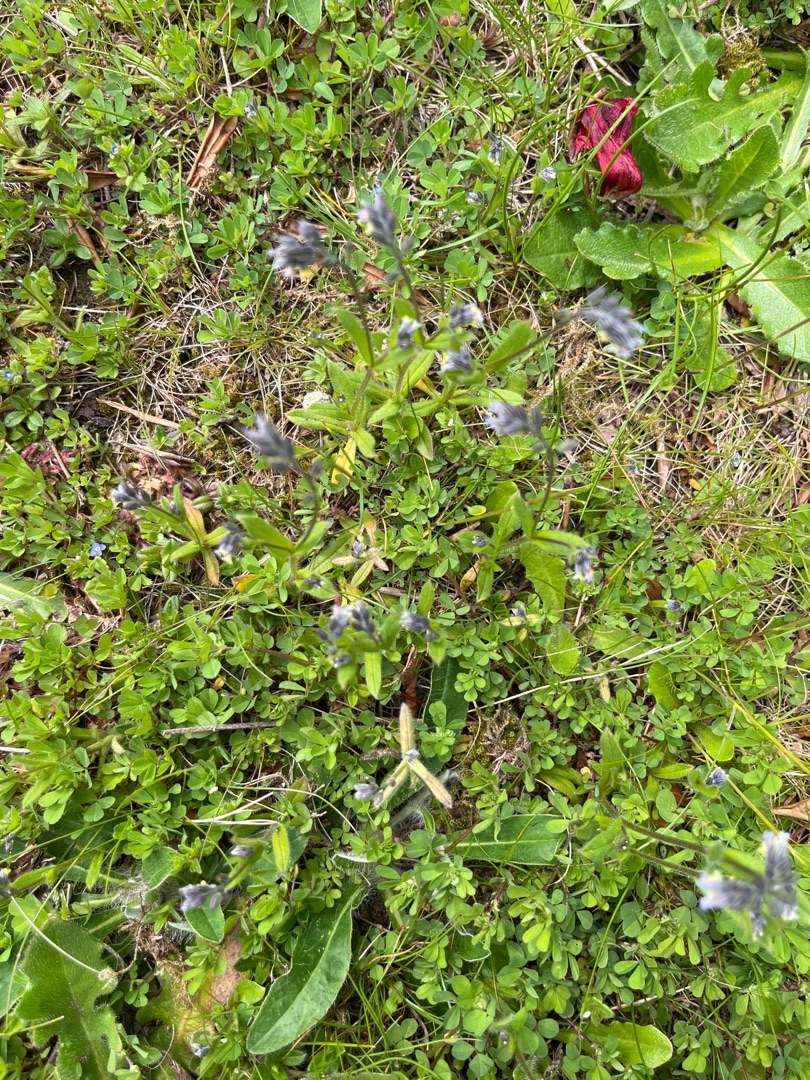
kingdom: Plantae
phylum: Tracheophyta
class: Magnoliopsida
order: Boraginales
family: Boraginaceae
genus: Myosotis
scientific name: Myosotis discolor
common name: Forskelligfarvet forglemmigej
